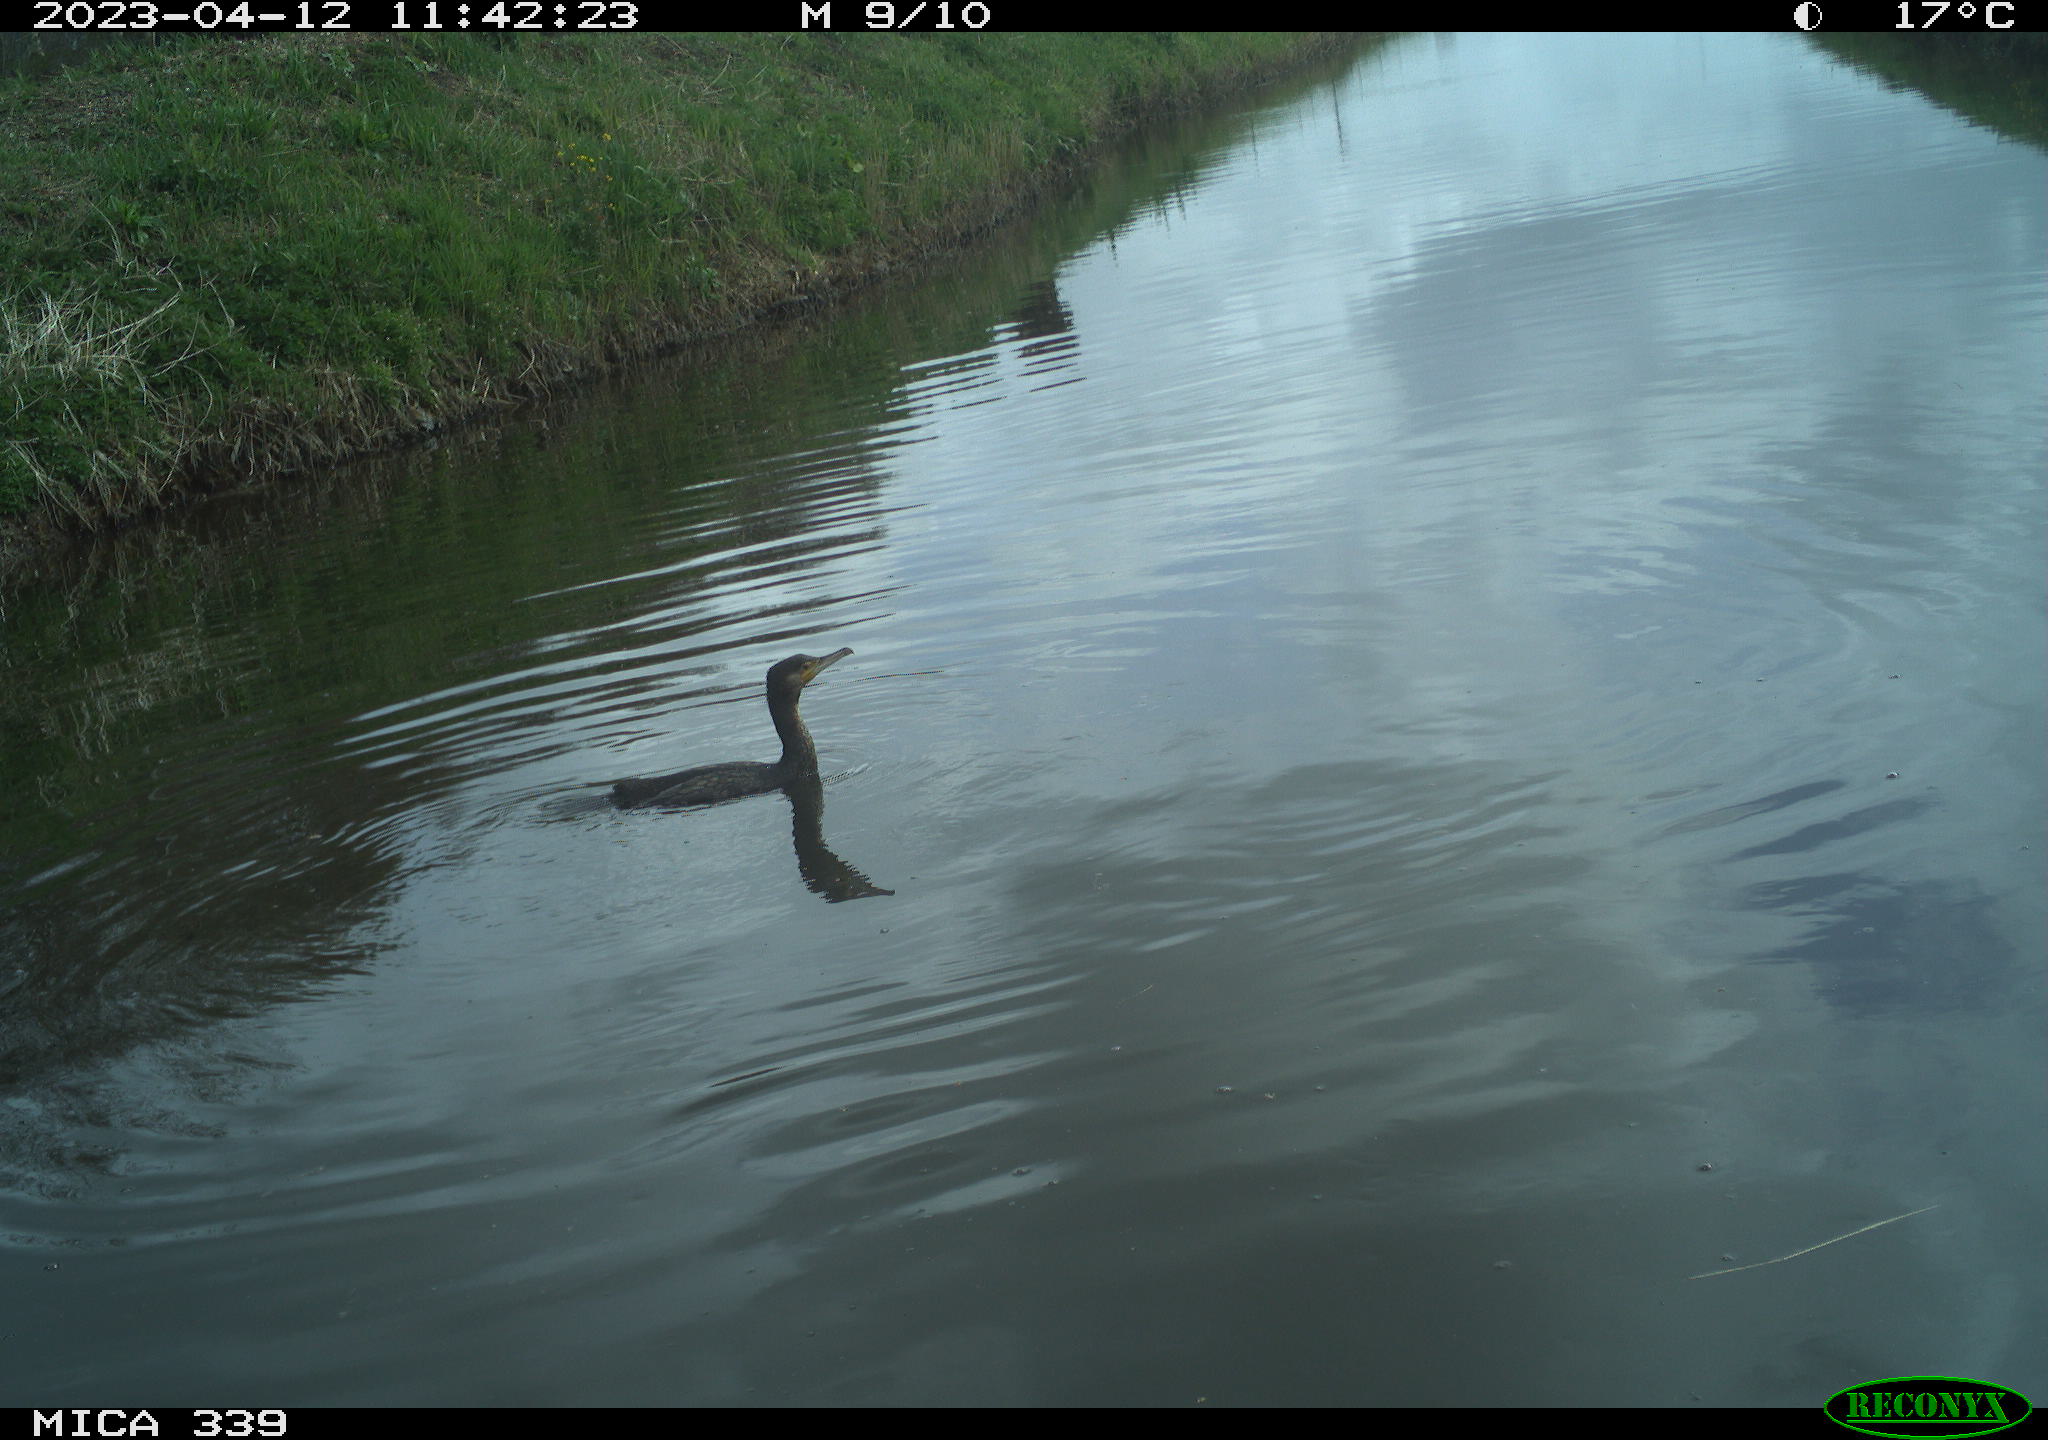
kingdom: Animalia
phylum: Chordata
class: Aves
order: Anseriformes
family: Anatidae
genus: Anas
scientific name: Anas
